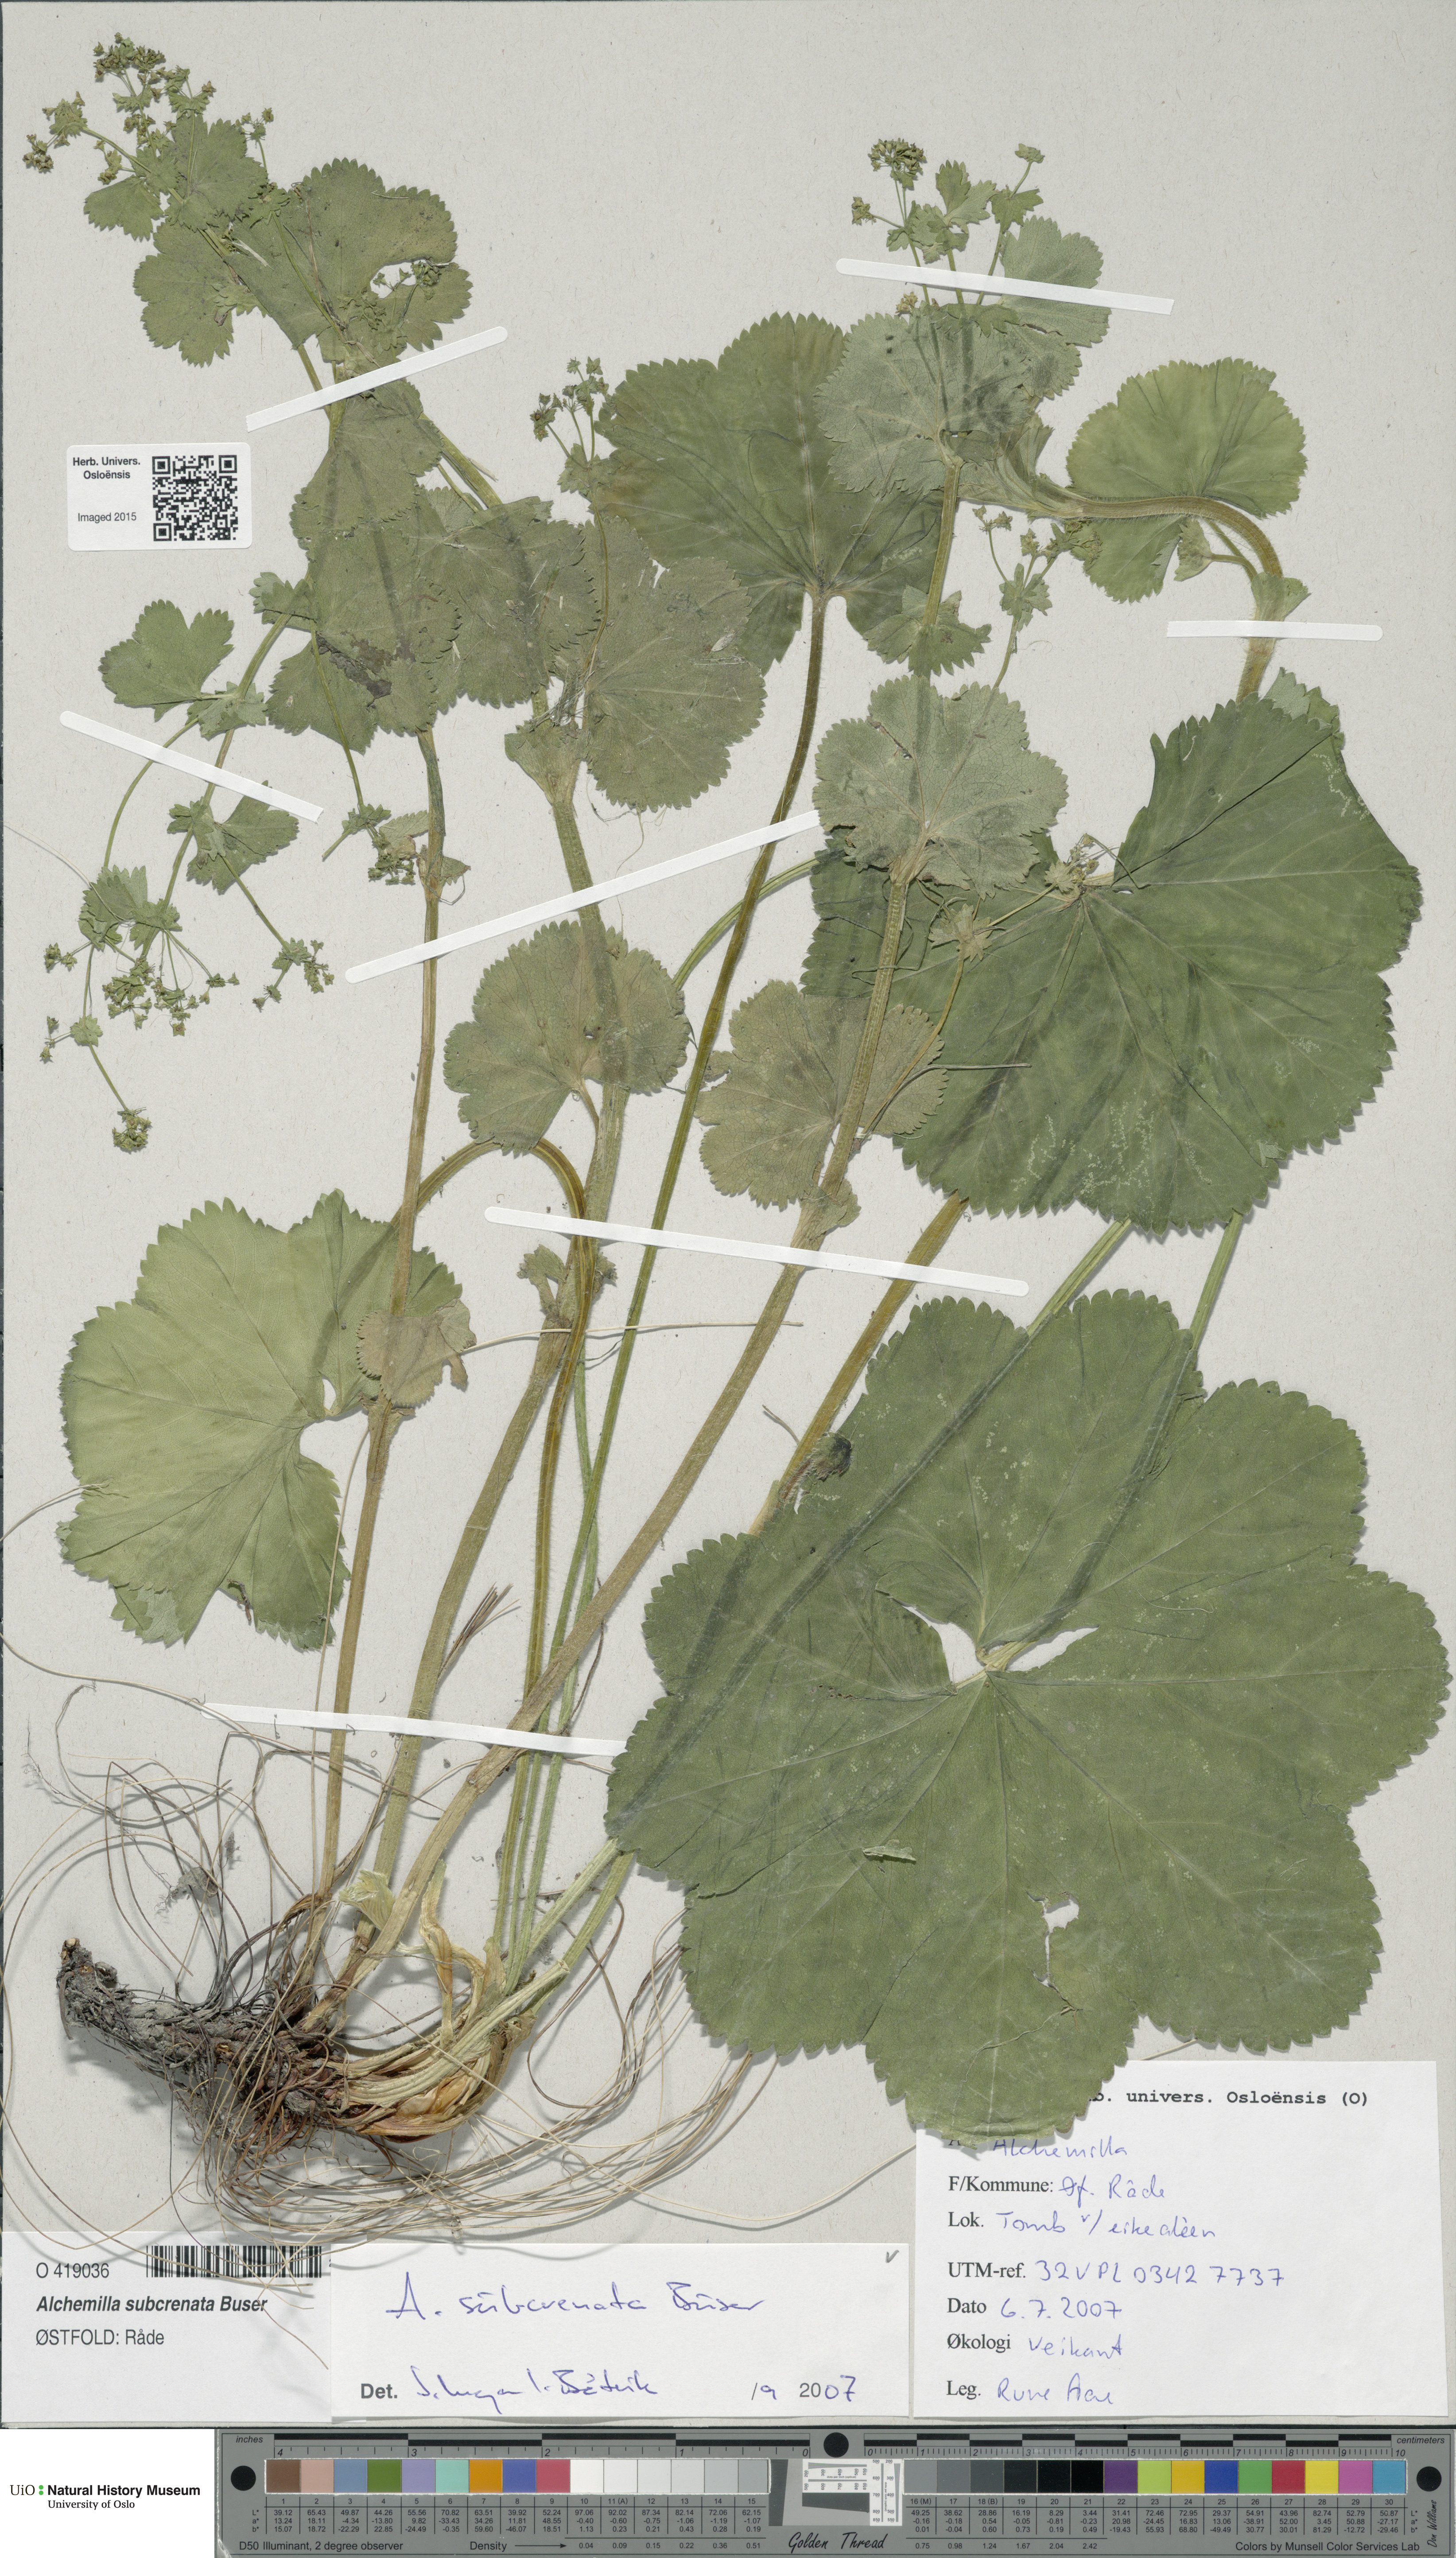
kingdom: Plantae
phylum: Tracheophyta
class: Magnoliopsida
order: Rosales
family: Rosaceae
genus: Alchemilla
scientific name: Alchemilla subcrenata
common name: Broadtooth lady's mantle
